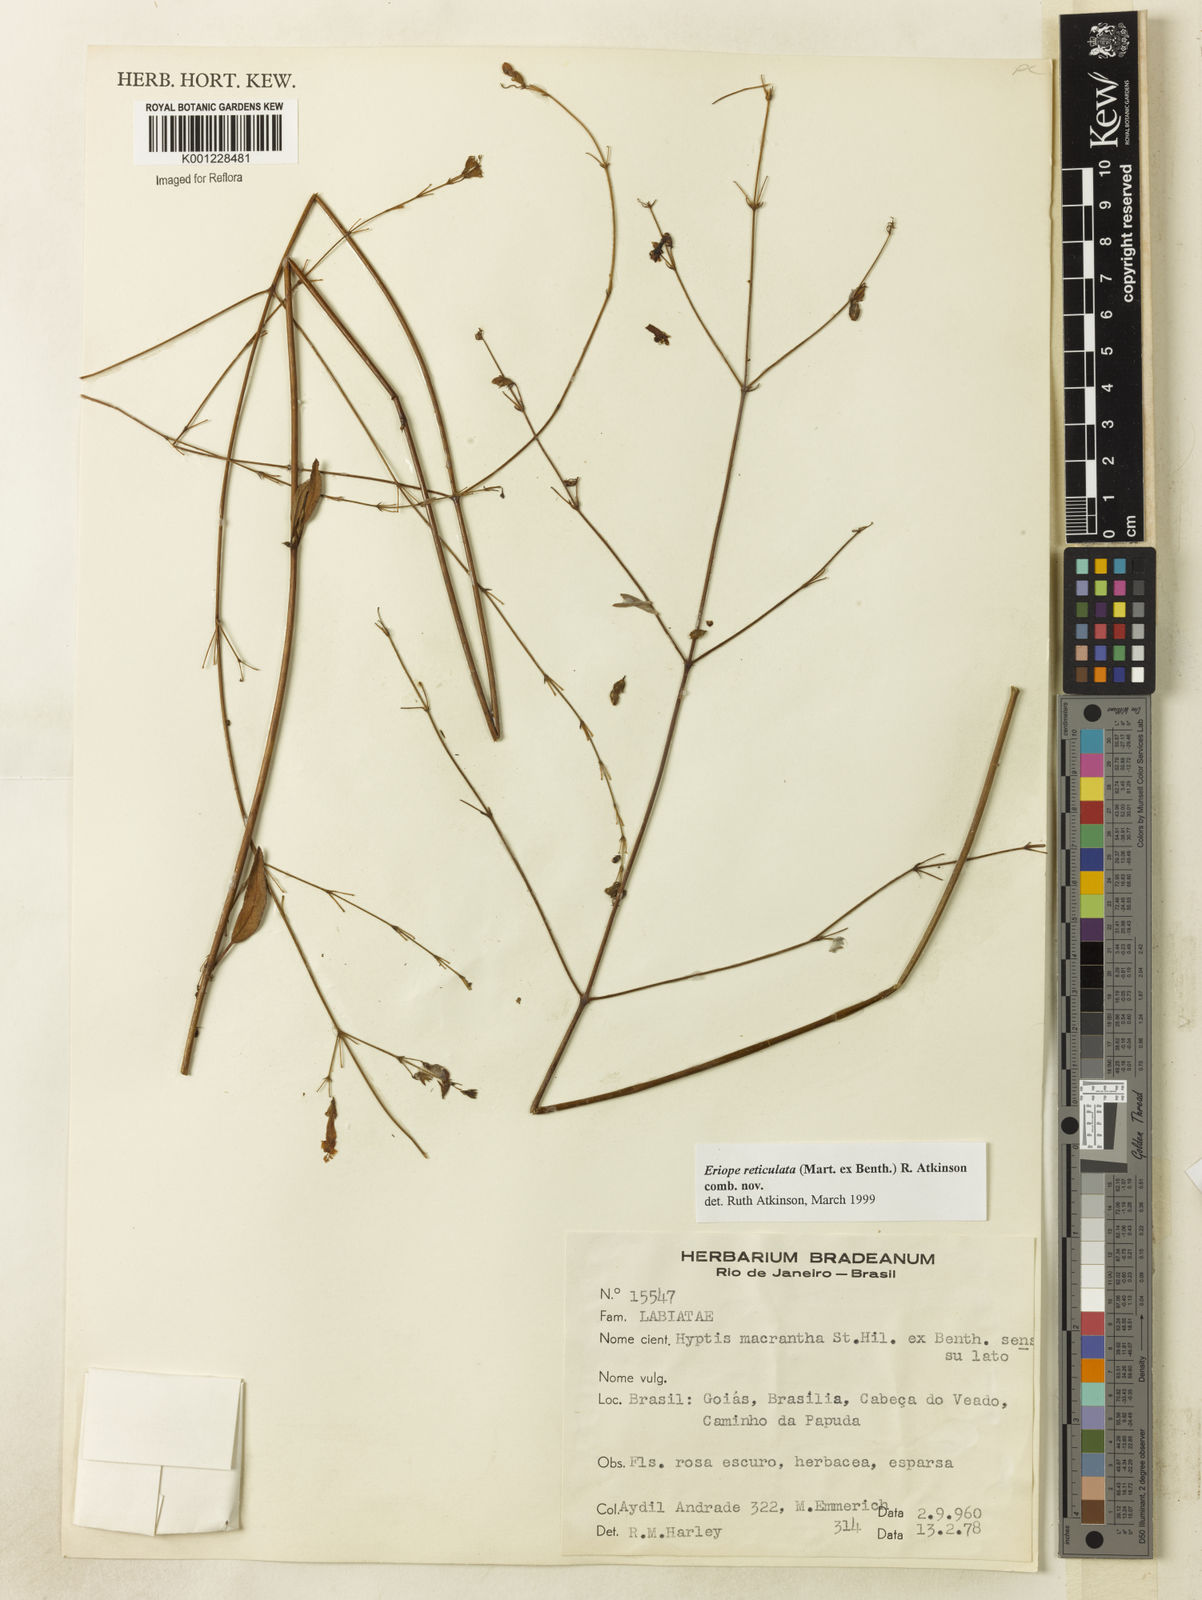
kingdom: Plantae
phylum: Tracheophyta
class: Magnoliopsida
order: Lamiales
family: Lamiaceae
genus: Hypenia
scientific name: Hypenia reticulata
